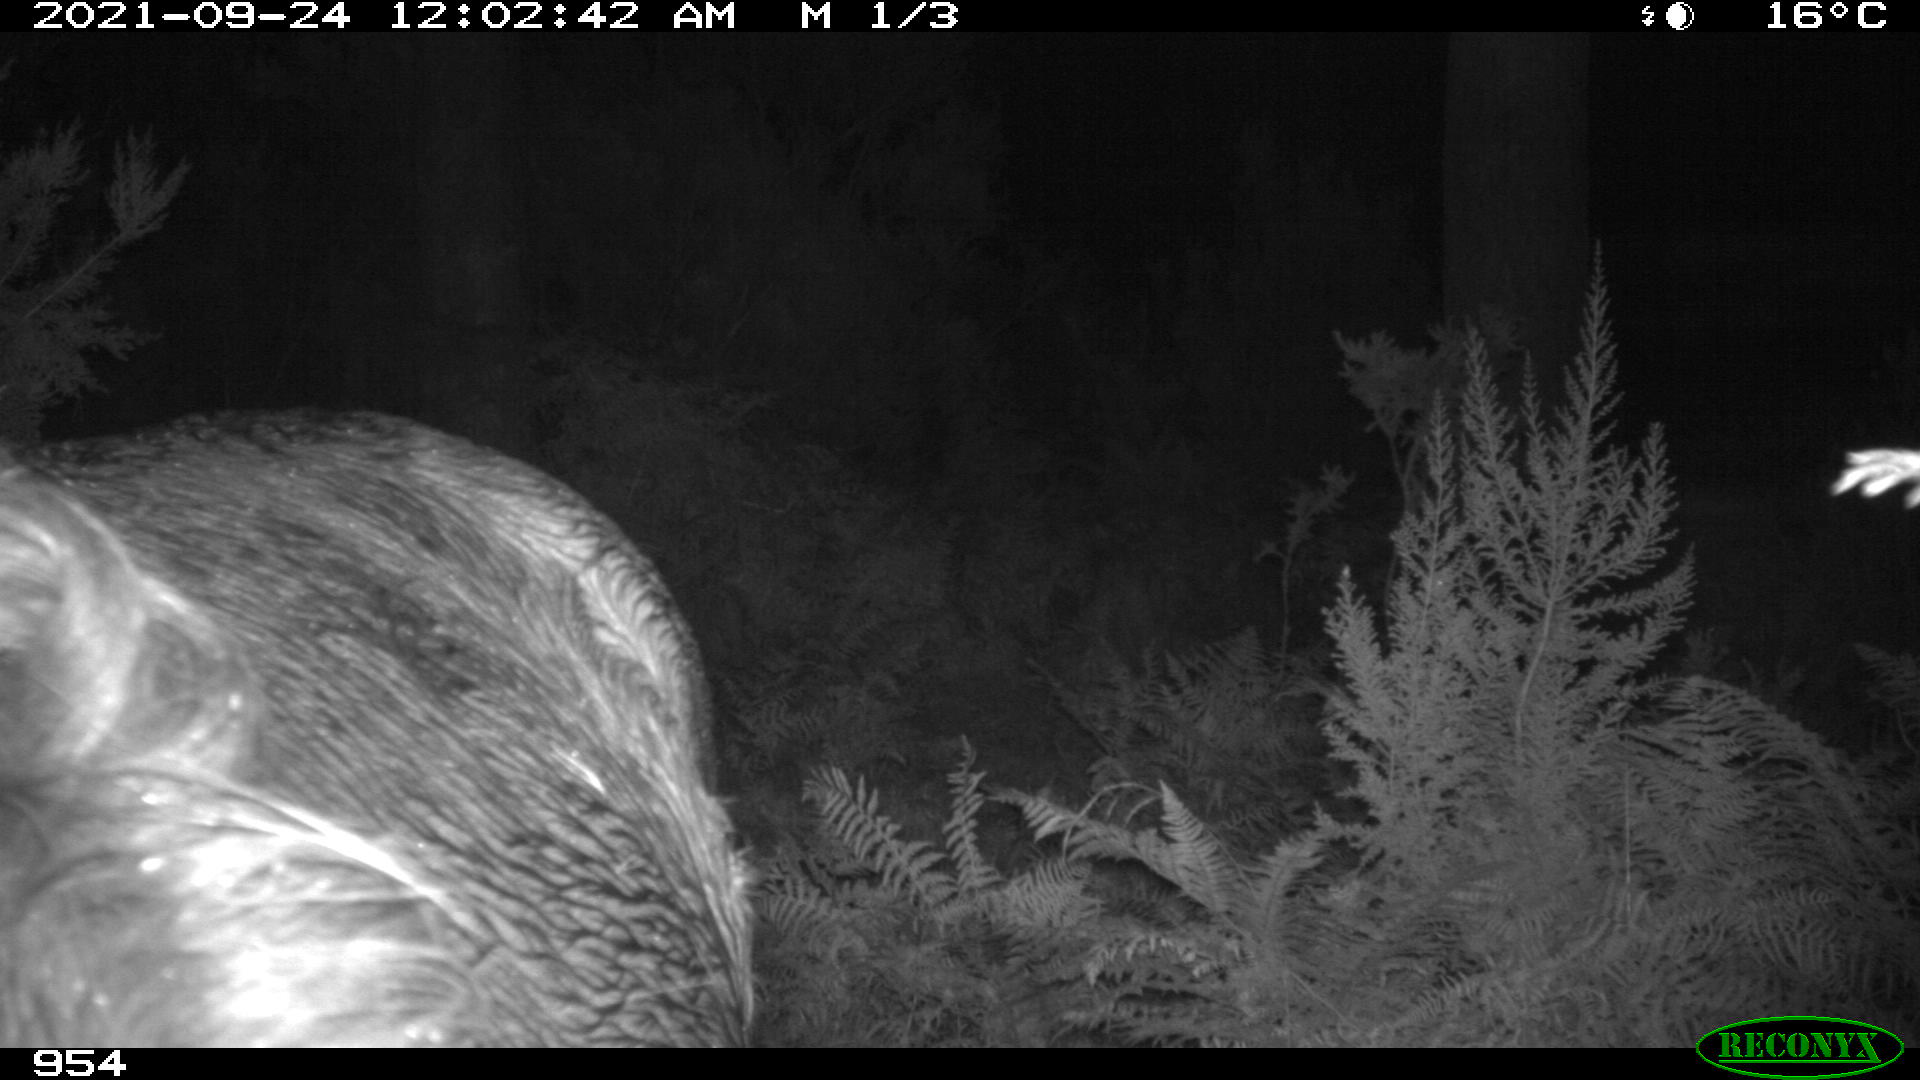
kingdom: Animalia
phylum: Chordata
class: Mammalia
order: Perissodactyla
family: Equidae
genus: Equus
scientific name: Equus caballus
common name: Horse
